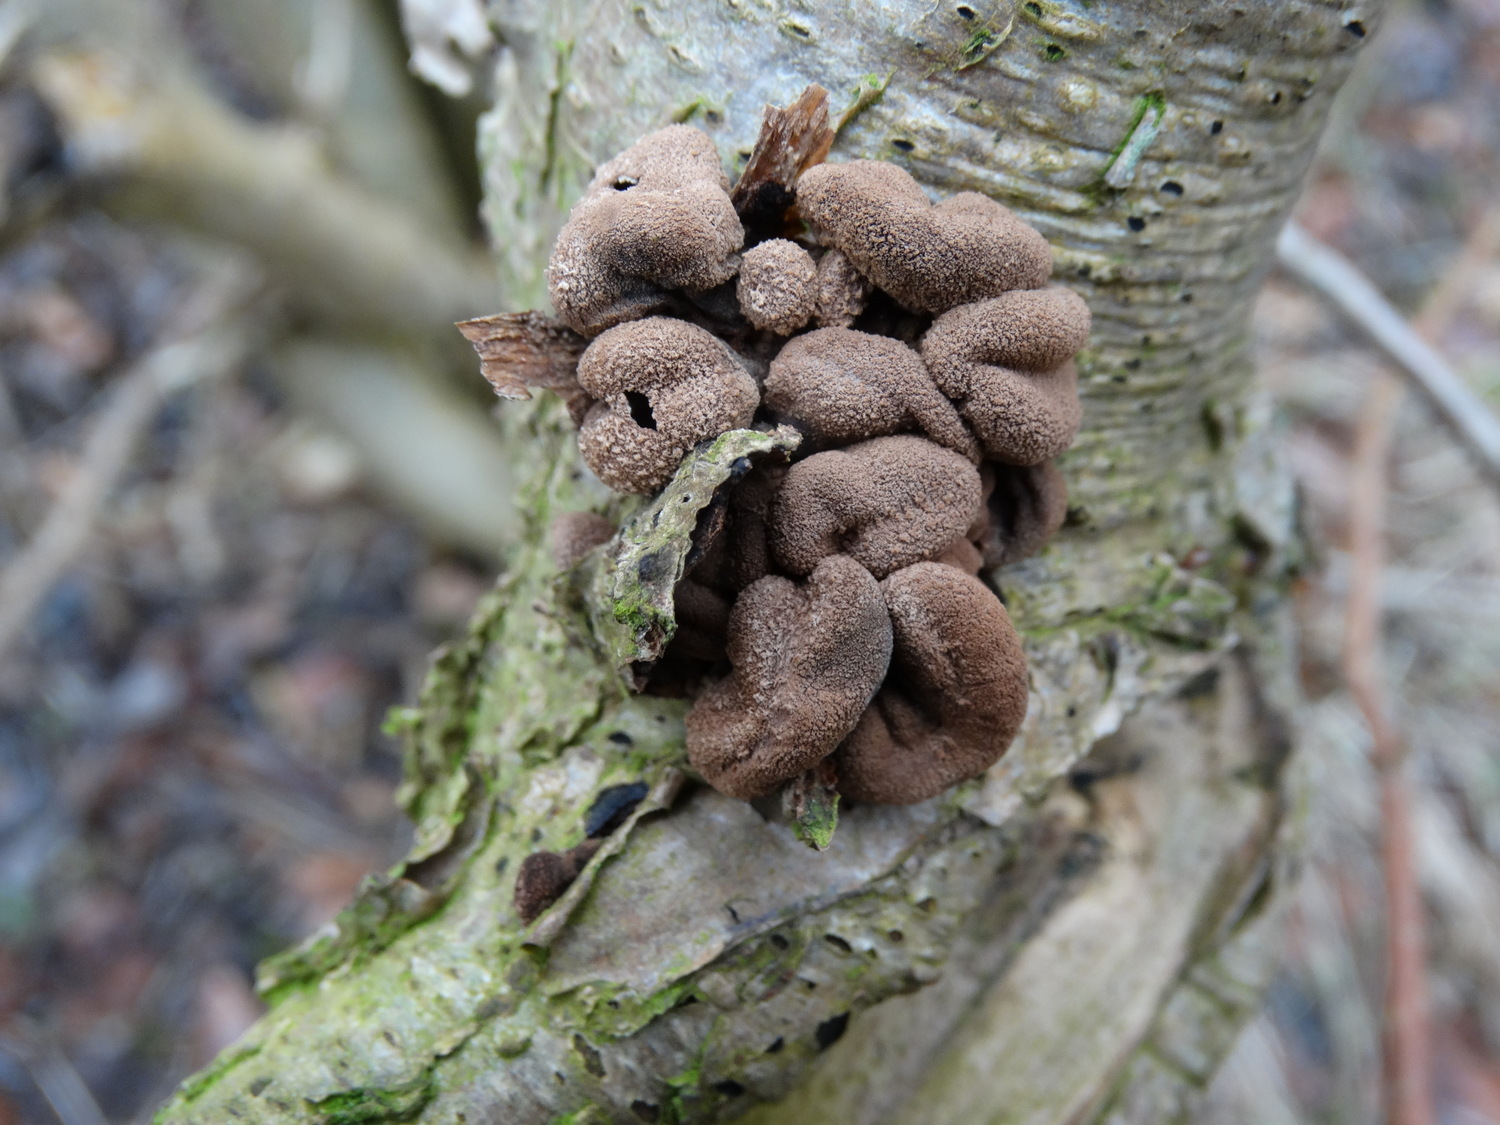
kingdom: Fungi
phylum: Ascomycota
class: Leotiomycetes
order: Helotiales
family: Cenangiaceae
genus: Encoelia
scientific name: Encoelia furfuracea
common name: hassel-læderskive
